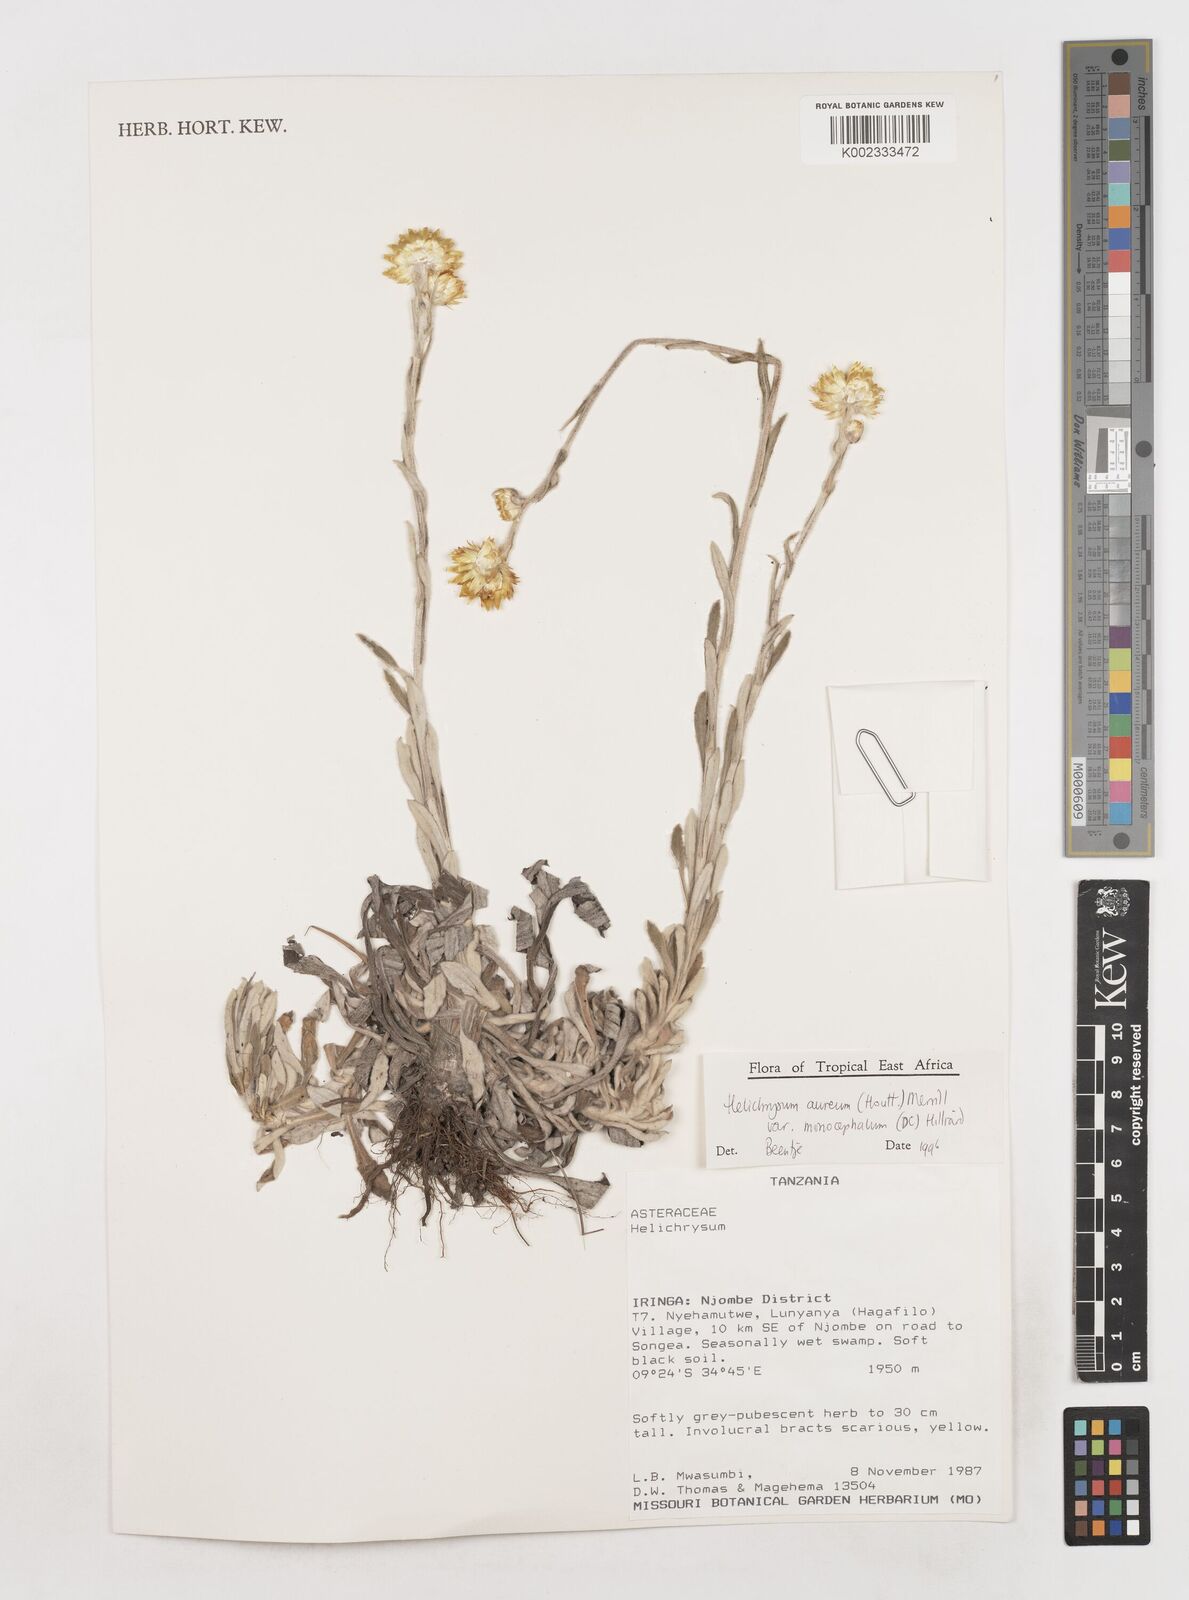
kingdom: Plantae
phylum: Tracheophyta
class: Magnoliopsida
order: Asterales
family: Asteraceae
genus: Helichrysum
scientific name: Helichrysum aureum
